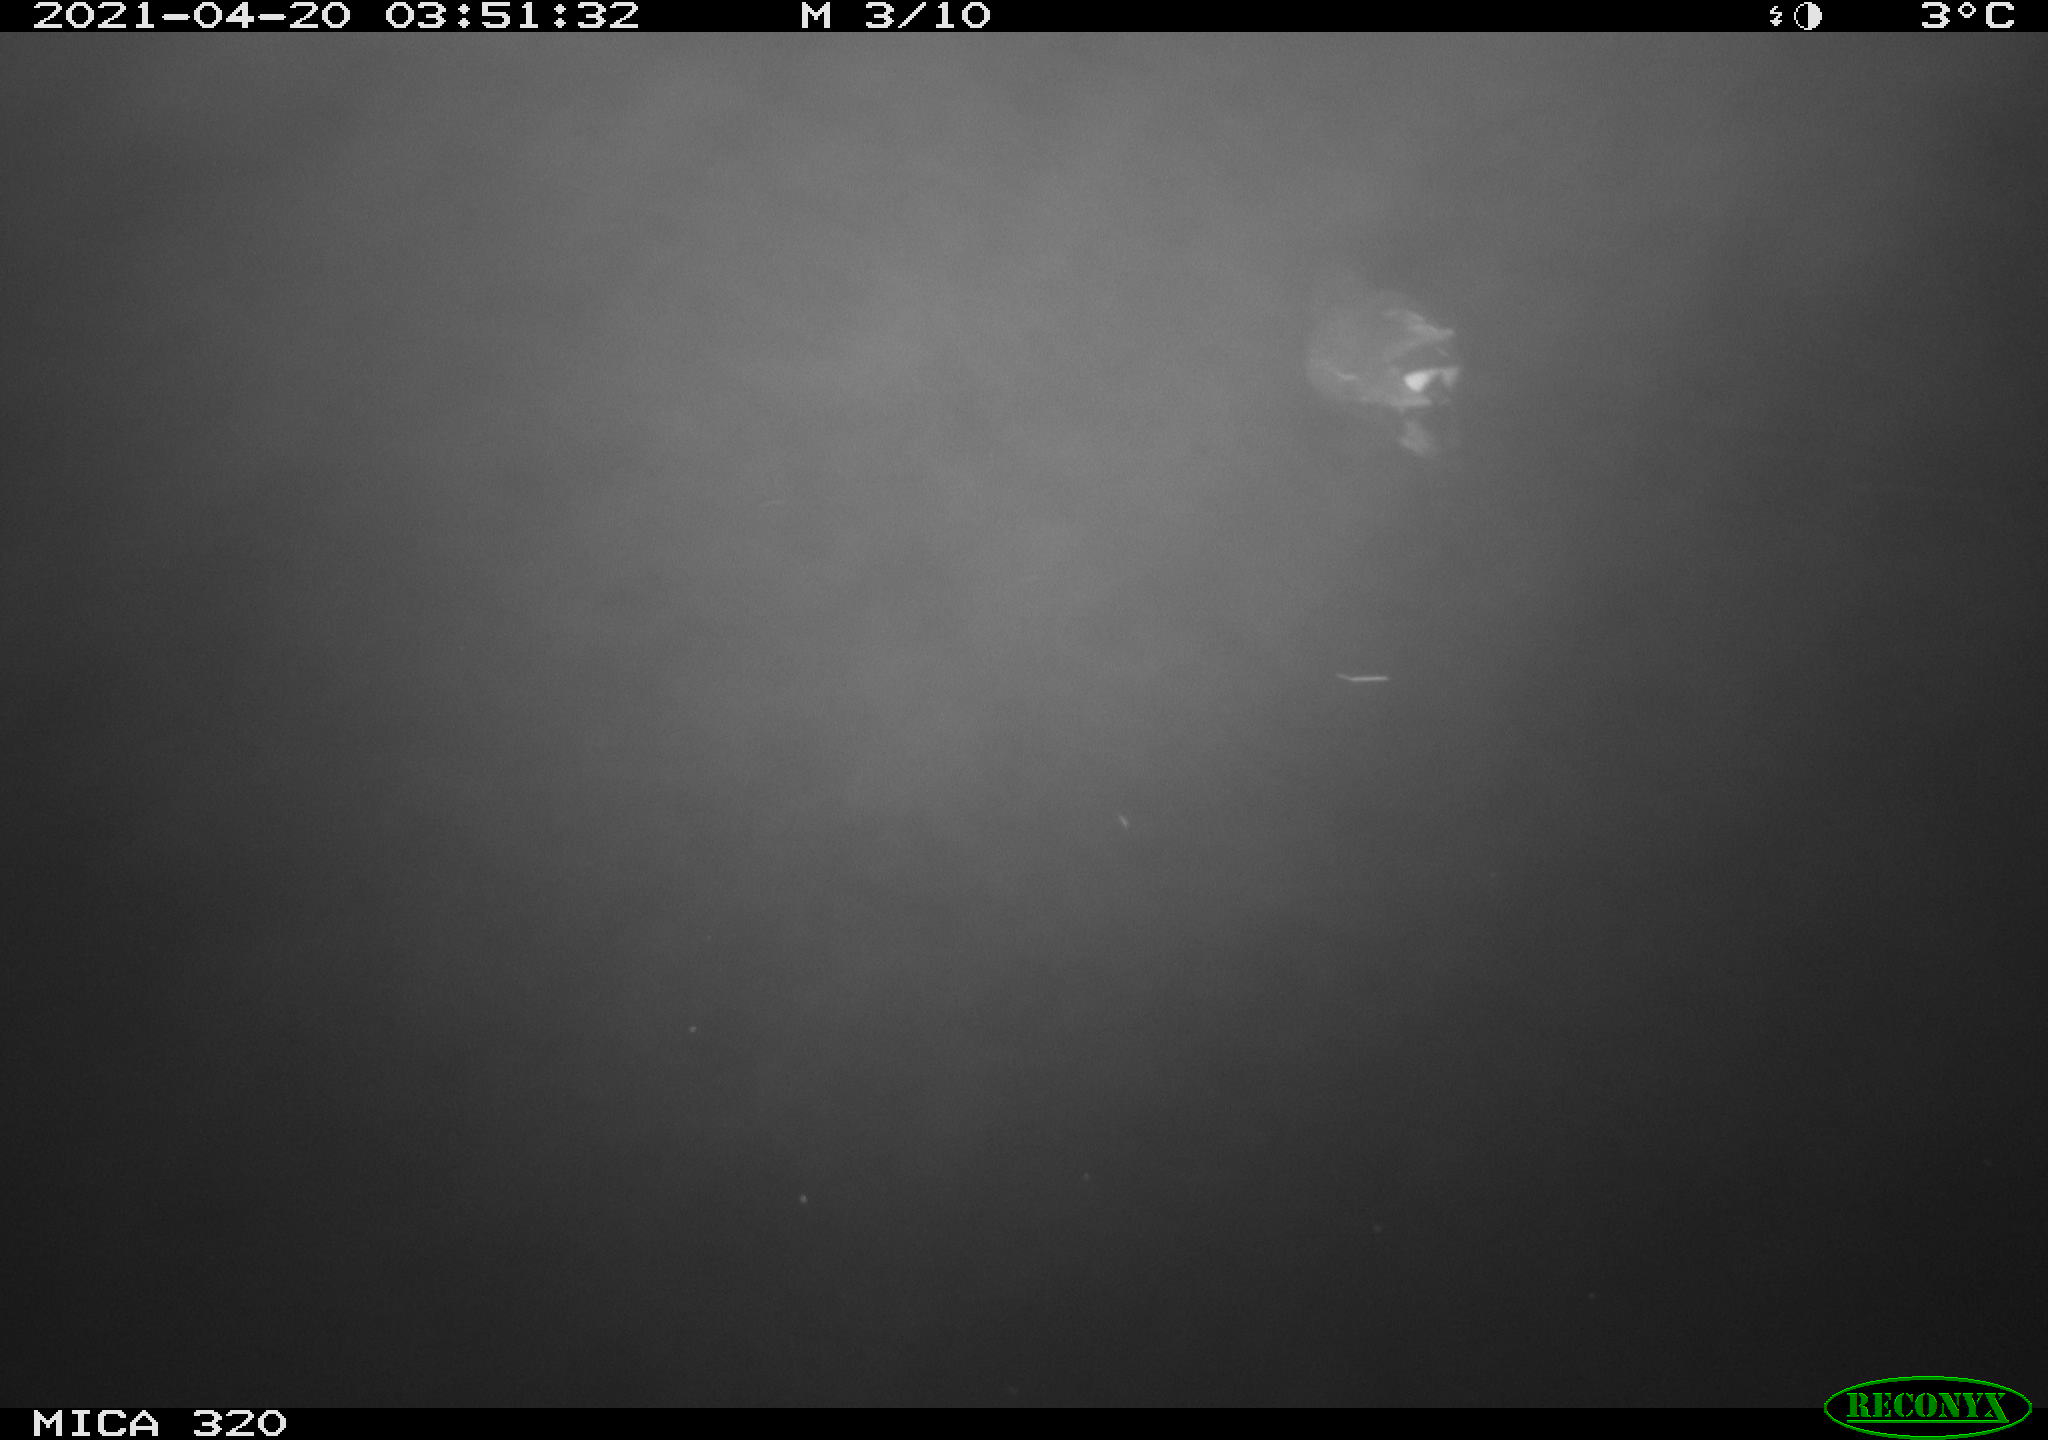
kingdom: Animalia
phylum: Chordata
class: Aves
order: Gruiformes
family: Rallidae
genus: Gallinula
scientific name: Gallinula chloropus
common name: Common moorhen
